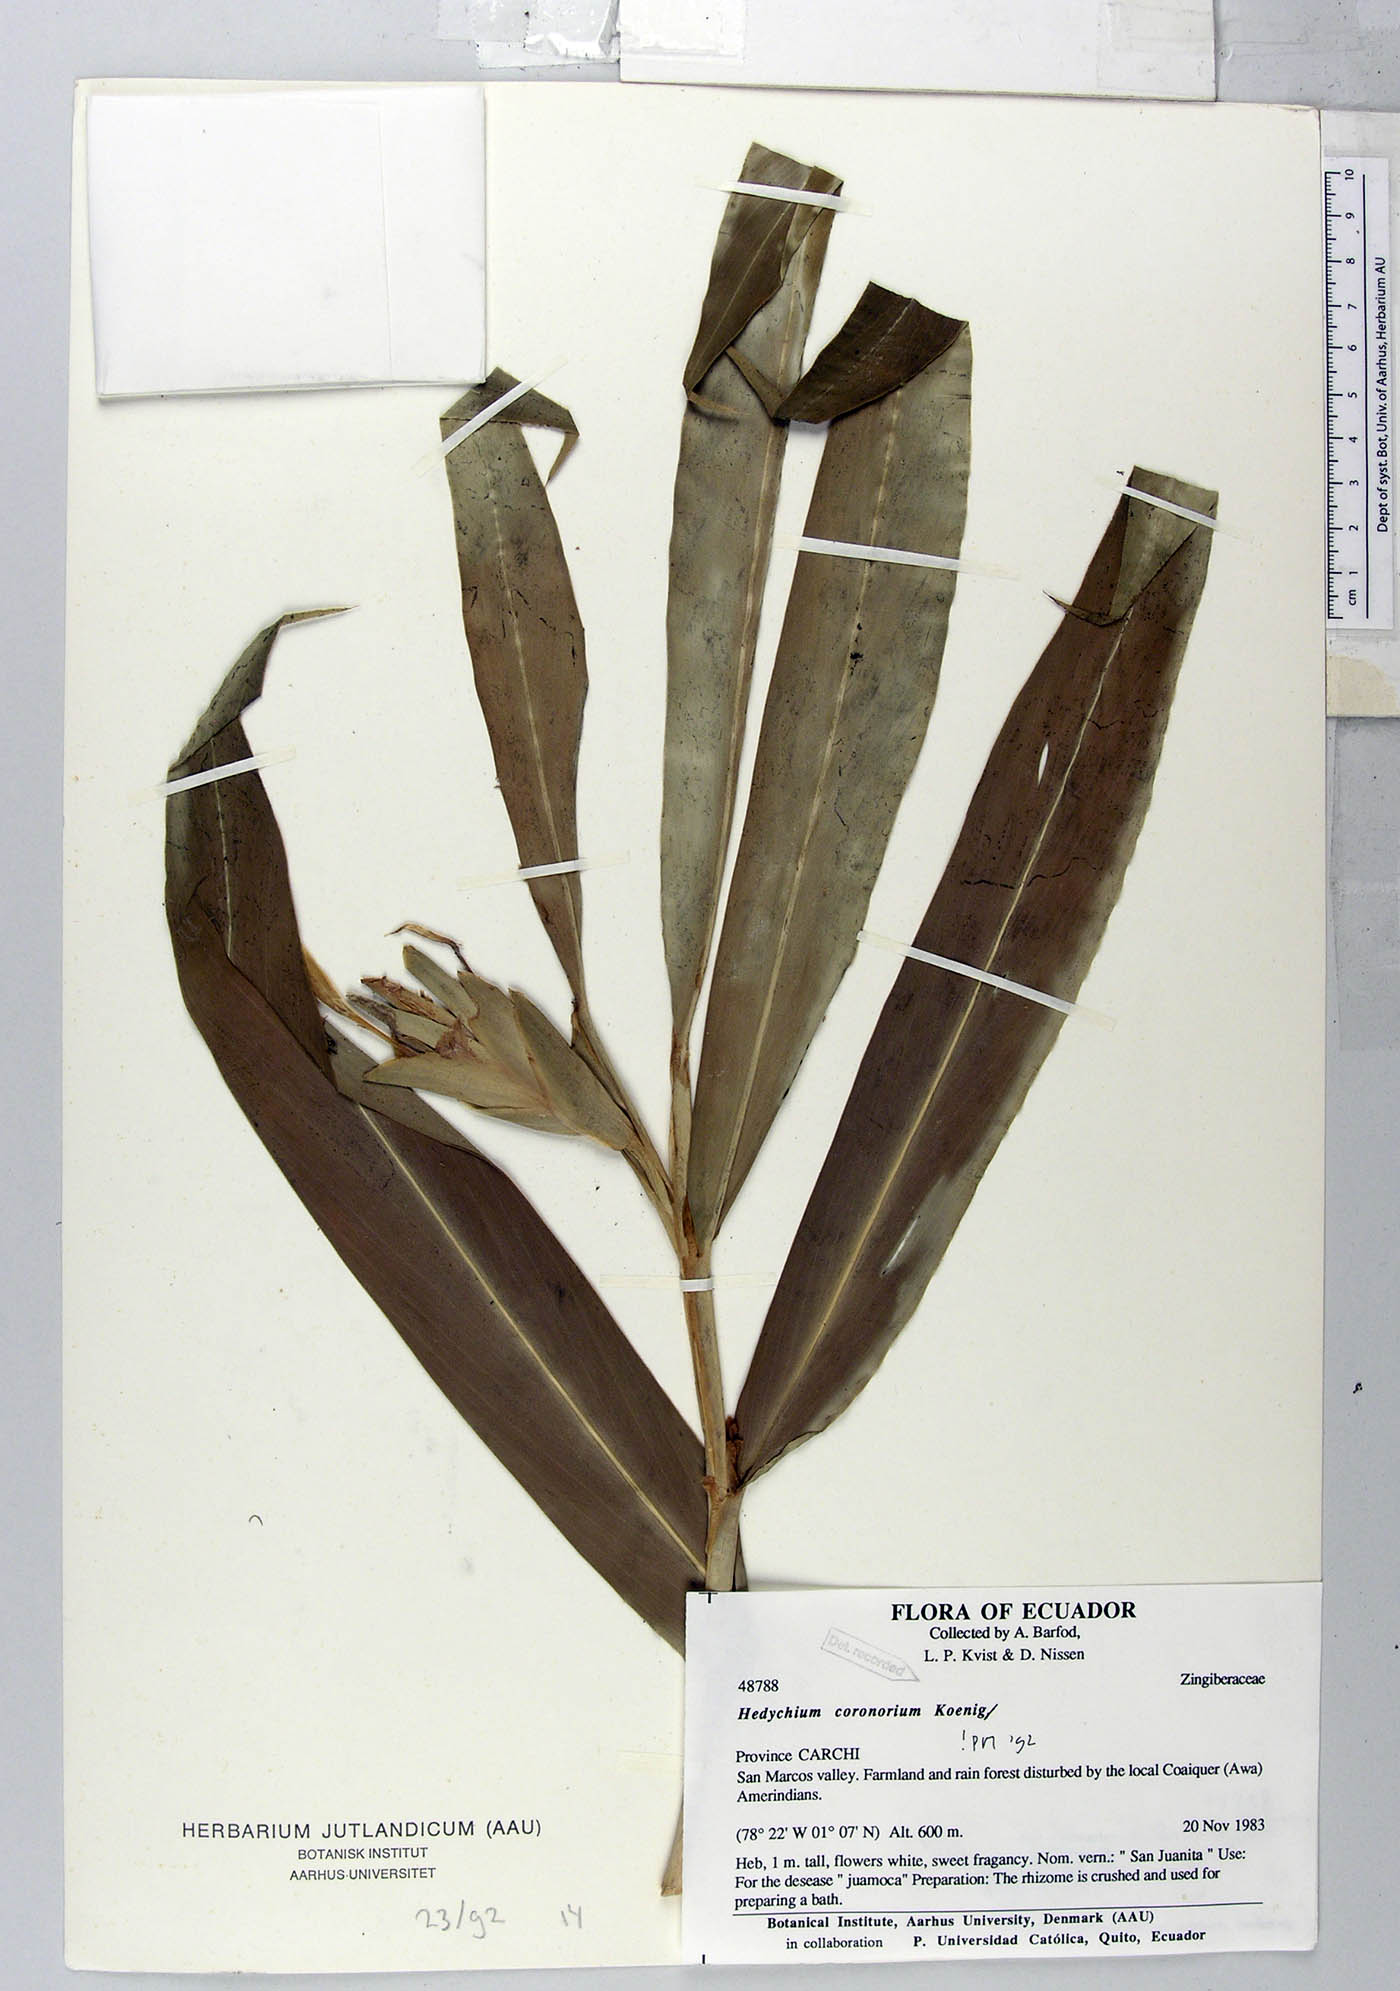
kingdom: Plantae
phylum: Tracheophyta
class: Liliopsida
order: Zingiberales
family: Zingiberaceae
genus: Hedychium
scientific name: Hedychium coronarium
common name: White garland-lily
